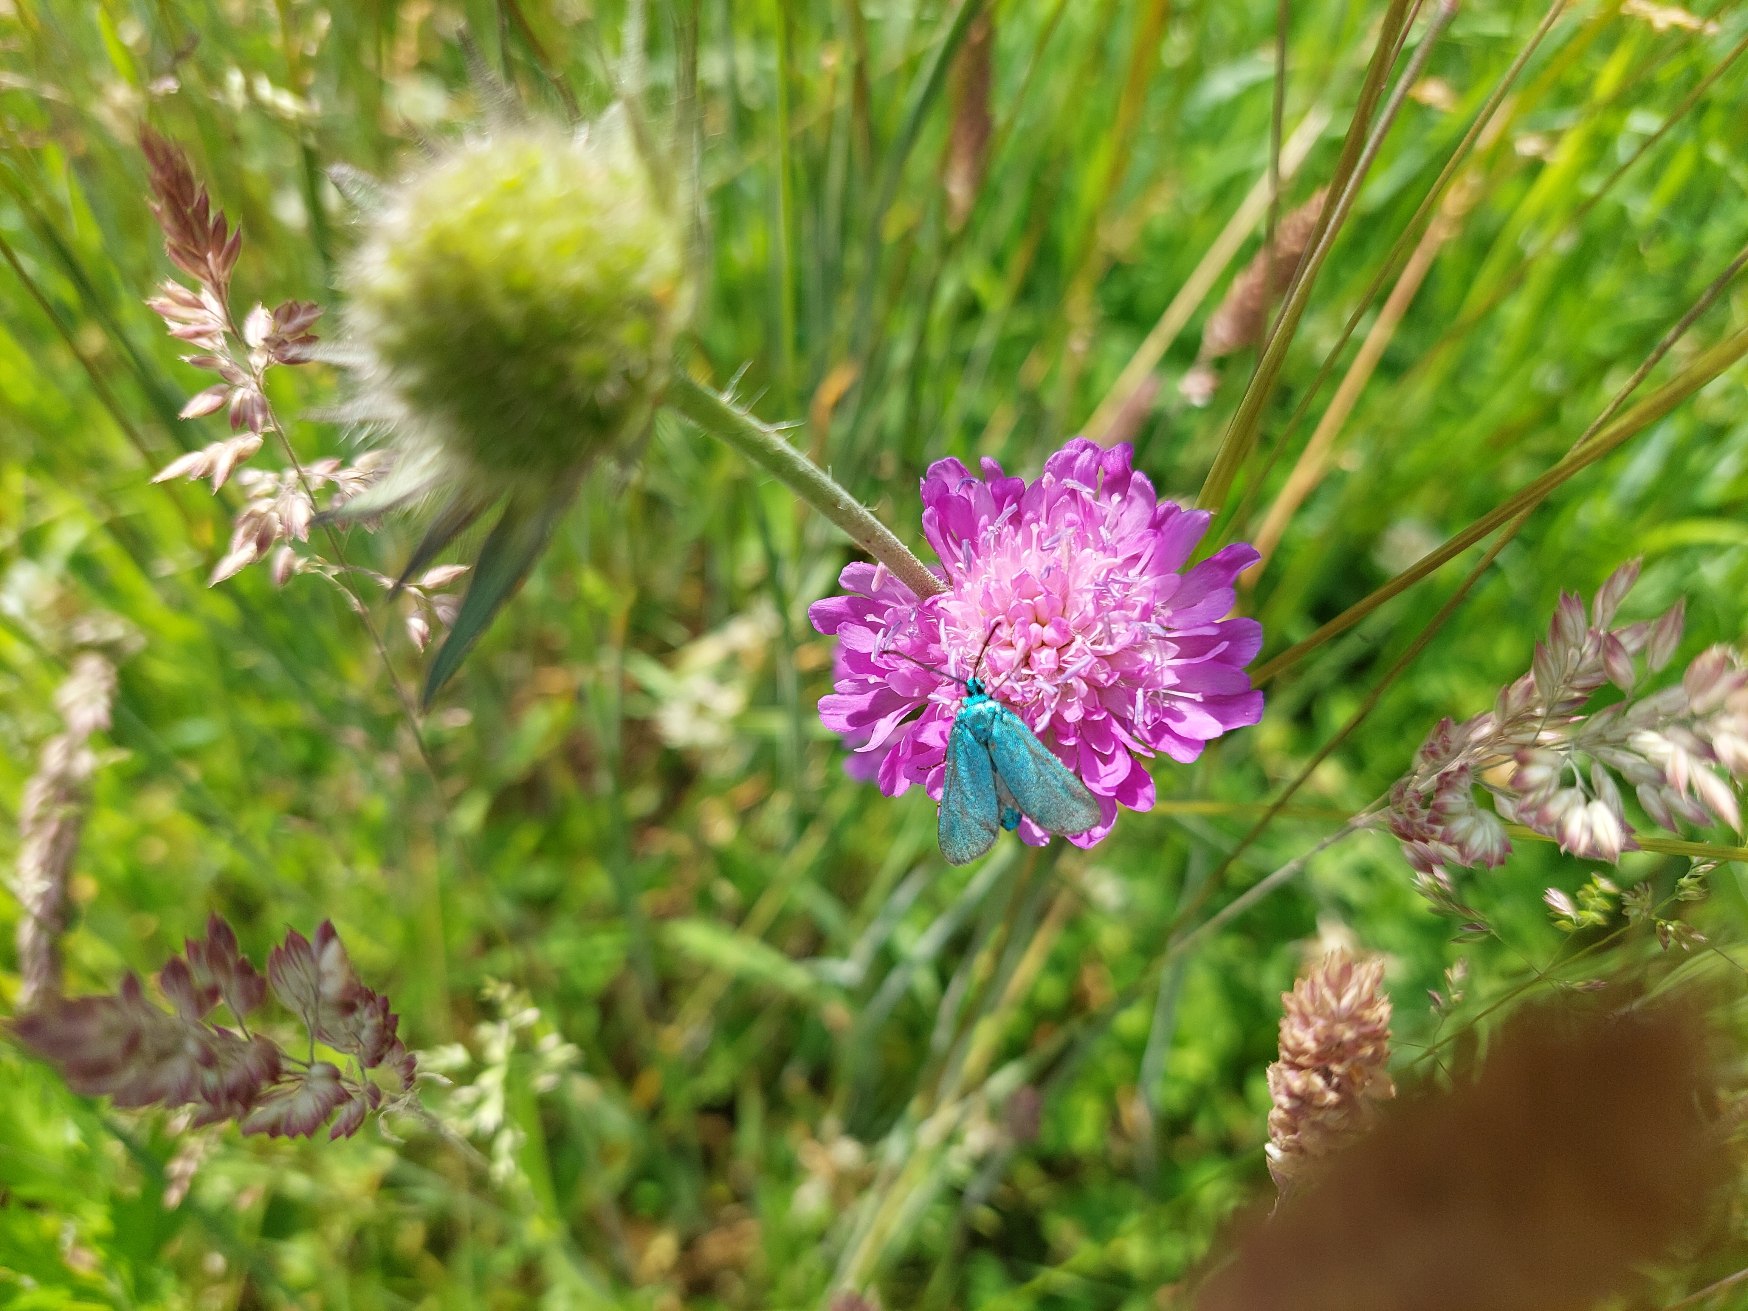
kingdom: Animalia
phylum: Arthropoda
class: Insecta
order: Lepidoptera
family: Zygaenidae
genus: Adscita
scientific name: Adscita statices
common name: Metalvinge
